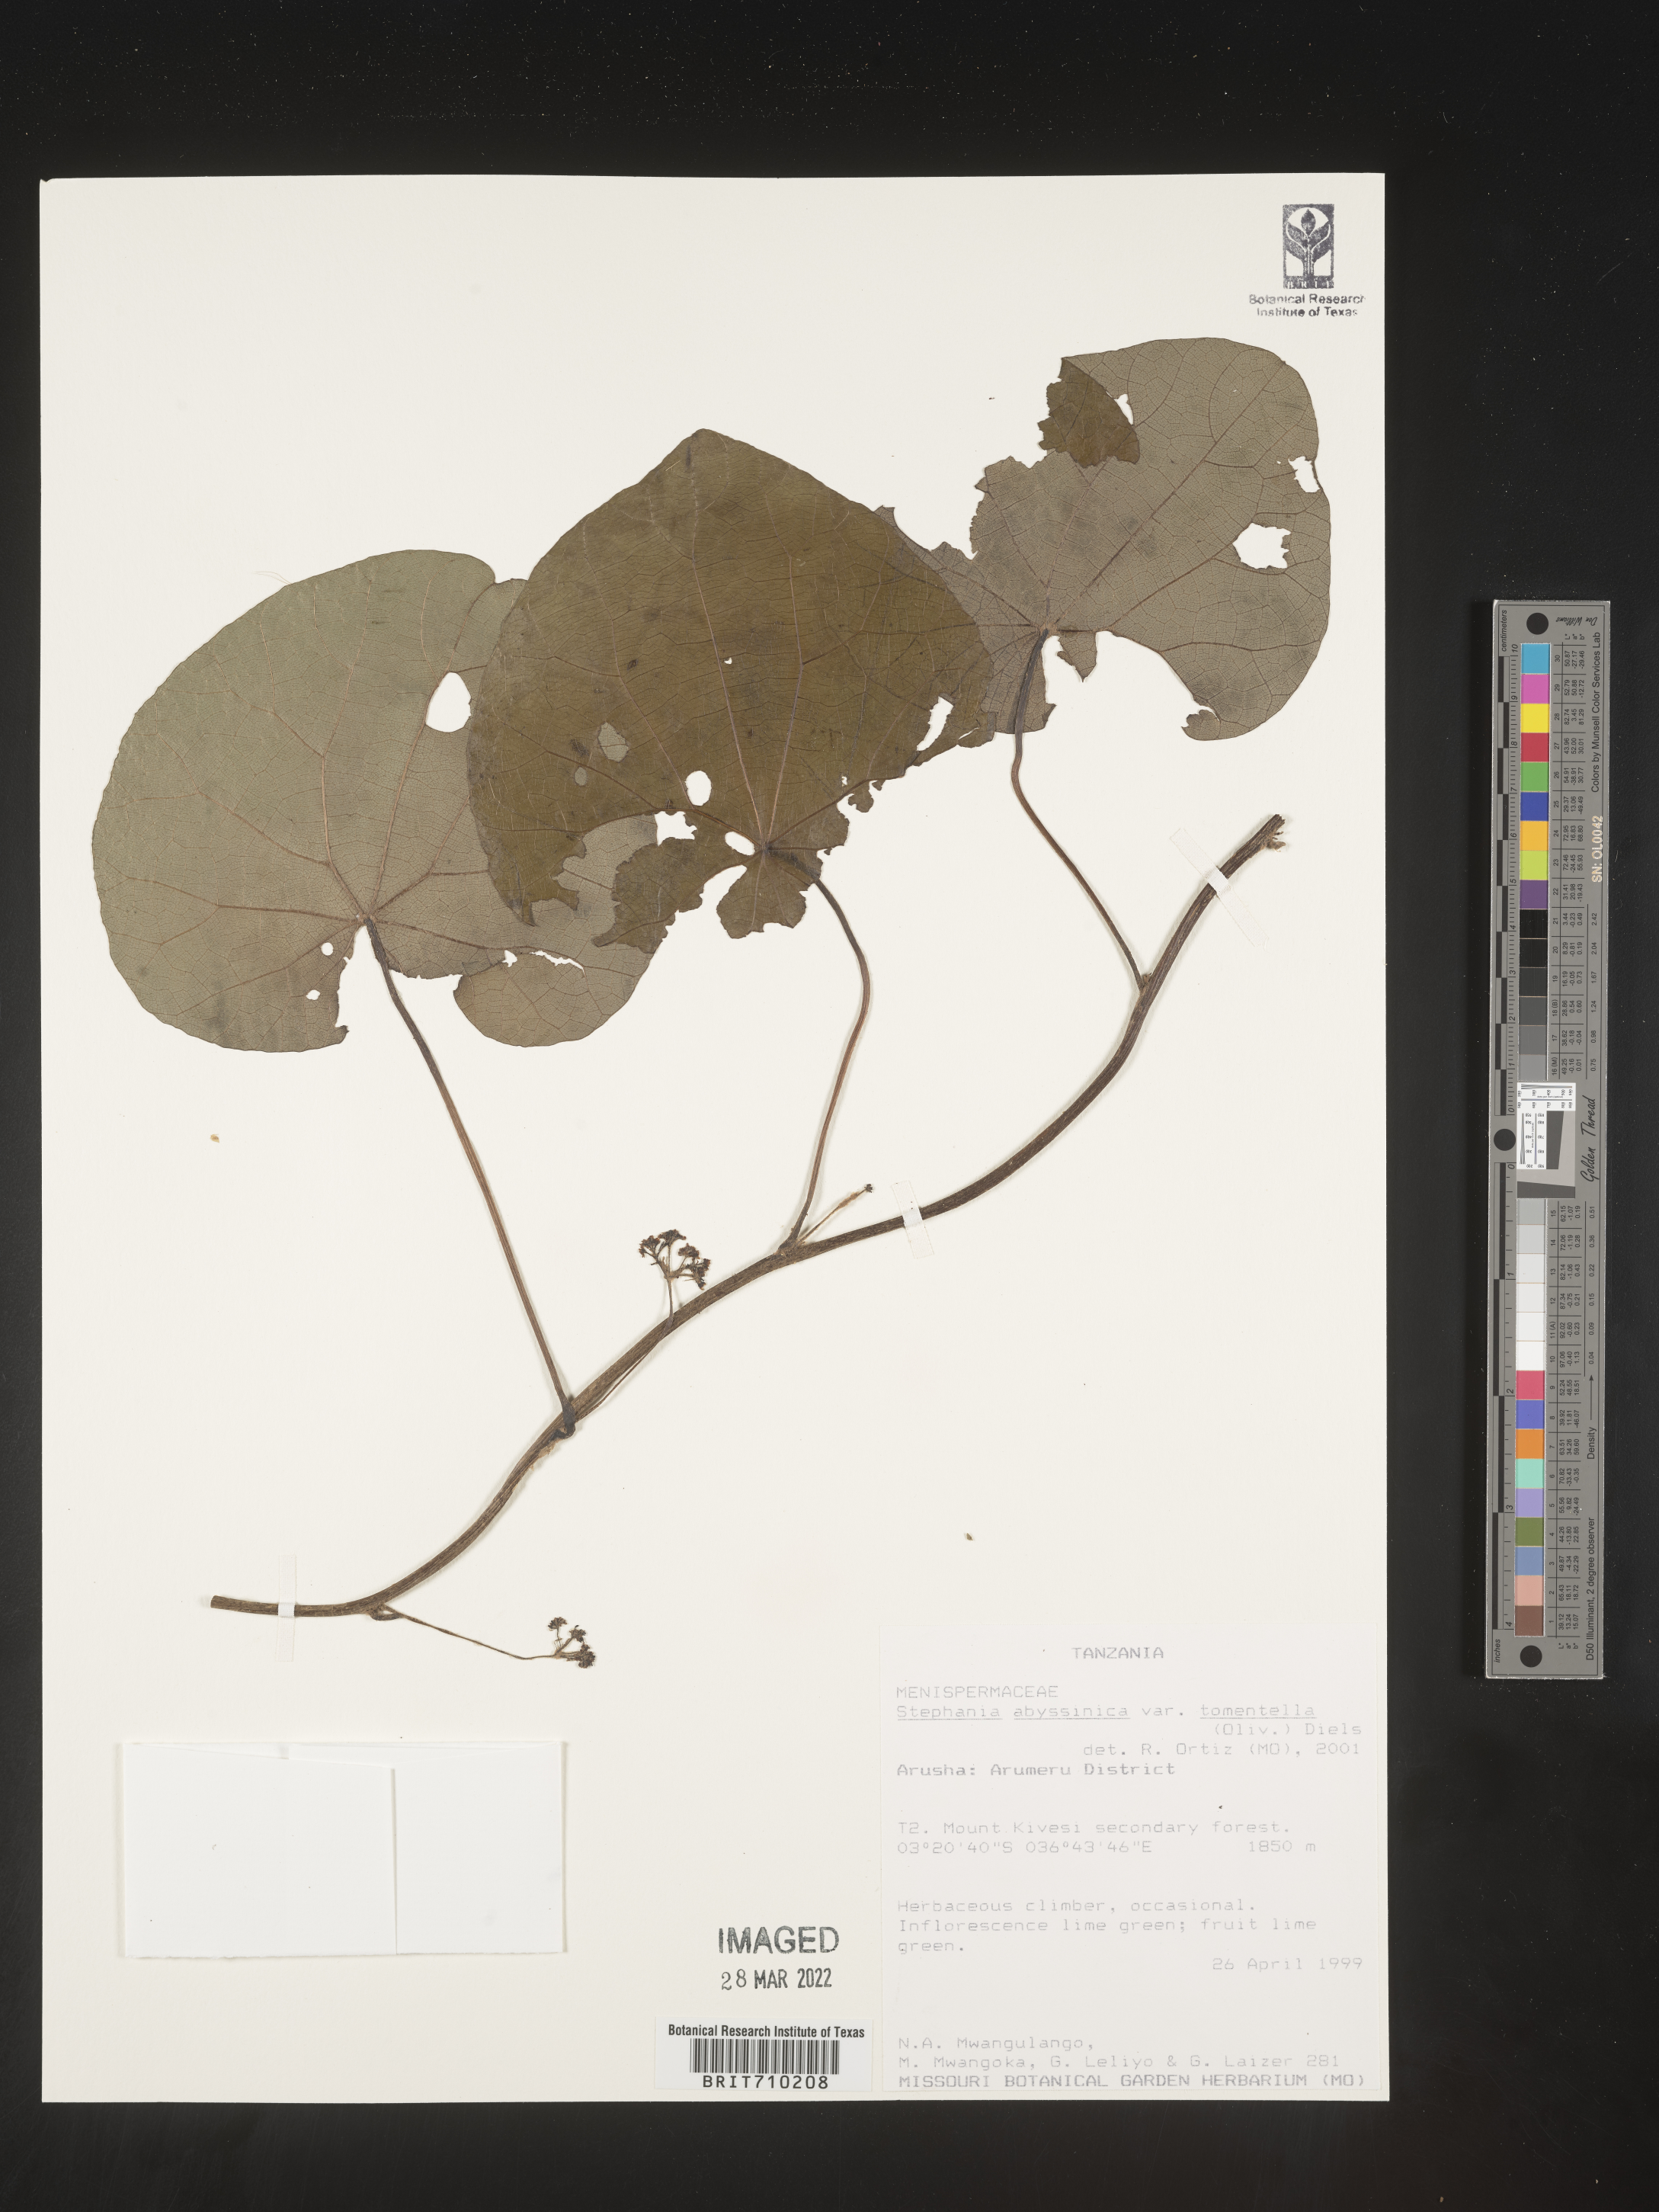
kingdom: Plantae
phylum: Tracheophyta
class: Magnoliopsida
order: Ranunculales
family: Menispermaceae
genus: Stephania
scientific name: Stephania
